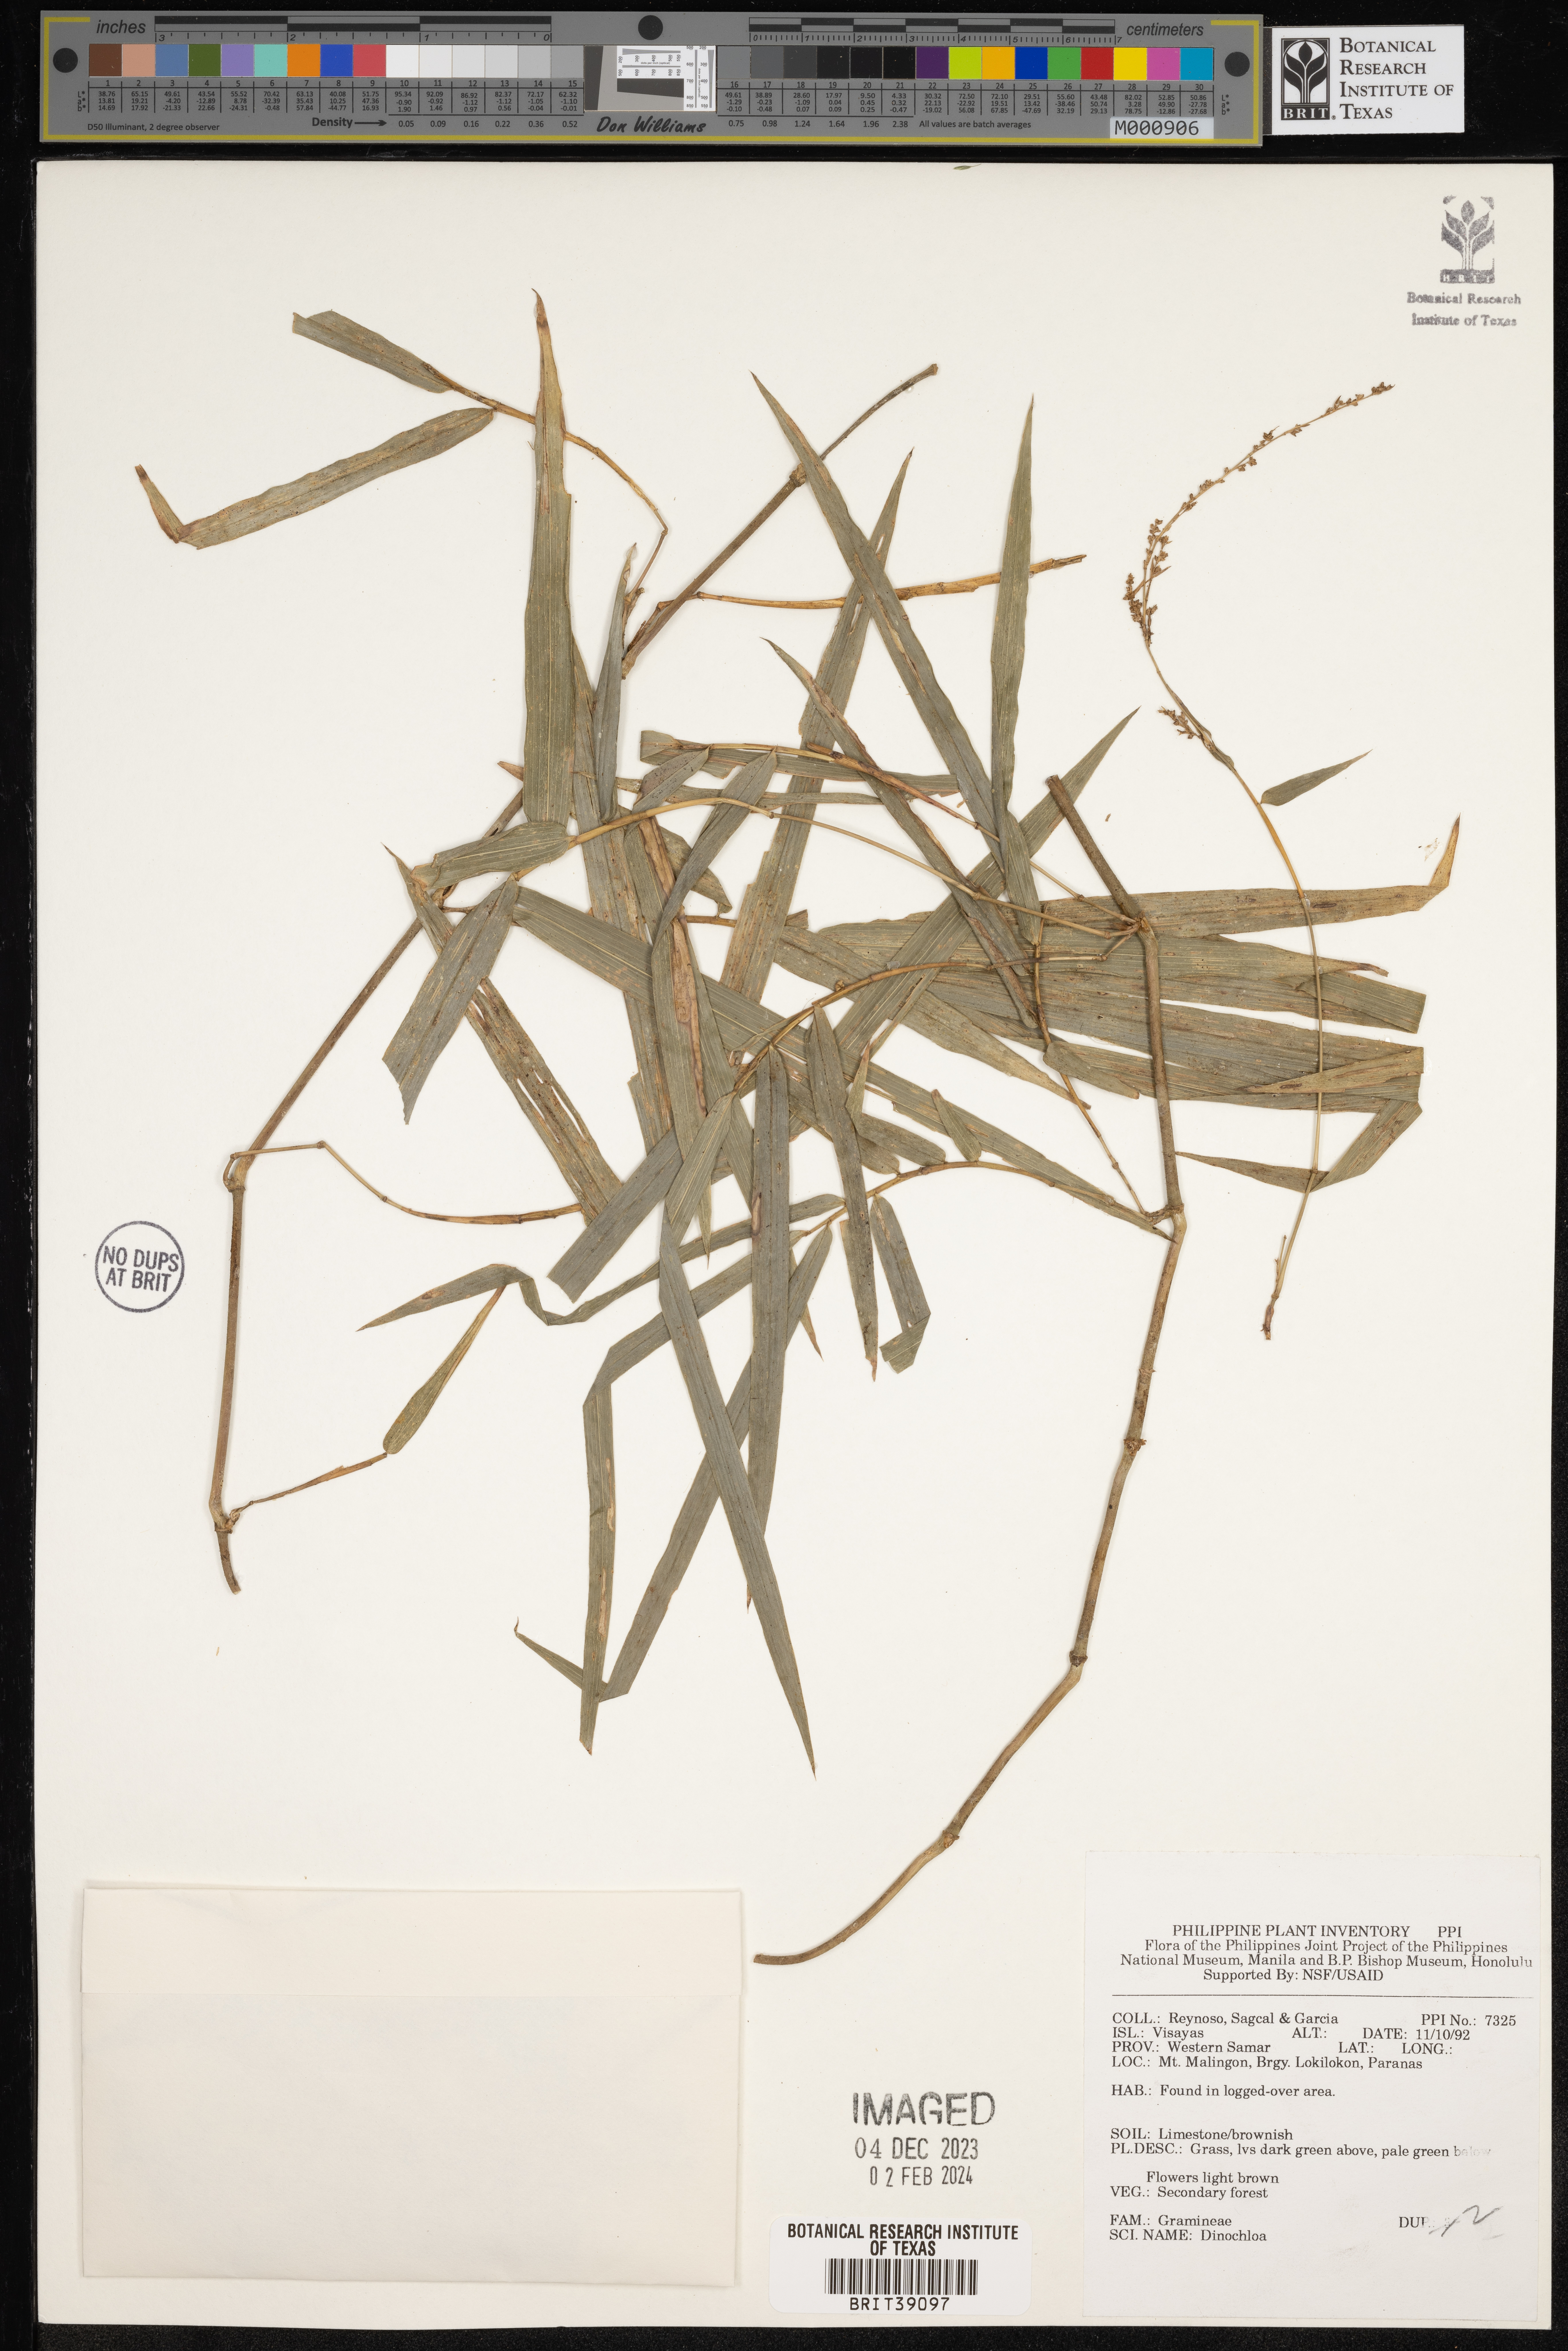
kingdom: Plantae
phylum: Tracheophyta
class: Liliopsida
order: Poales
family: Poaceae
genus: Dinochloa
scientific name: Dinochloa
